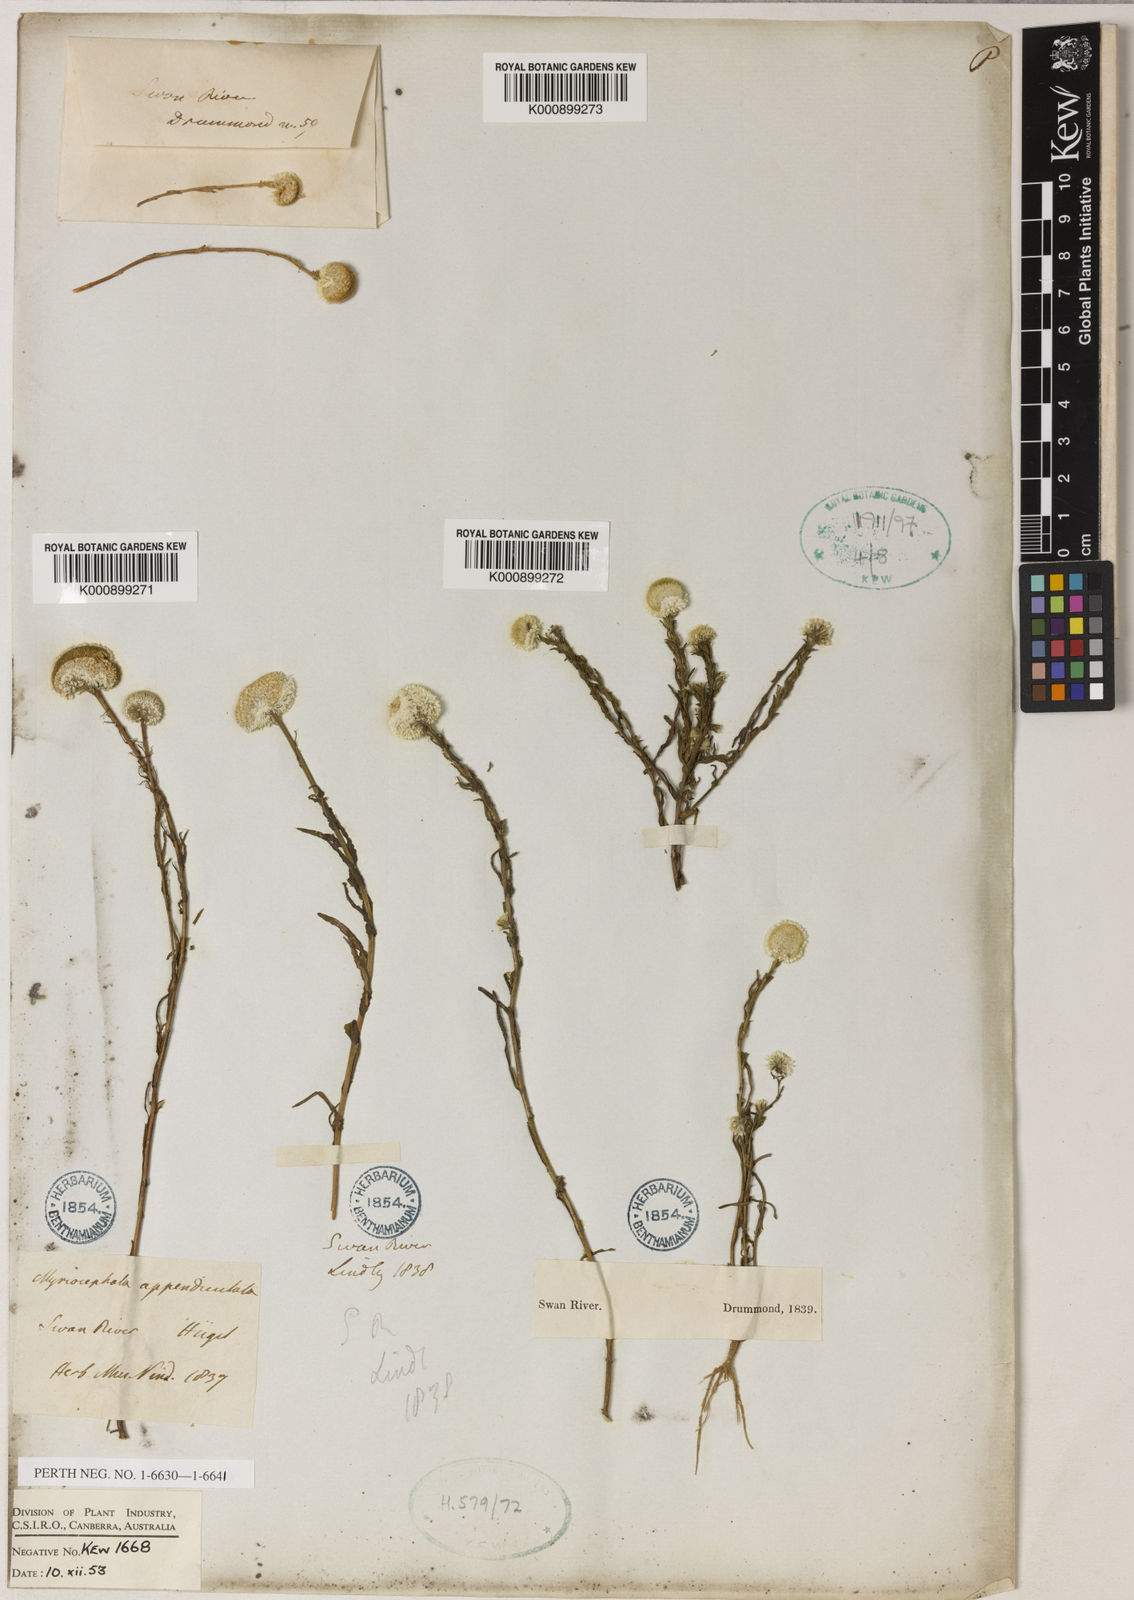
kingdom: Plantae
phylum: Tracheophyta
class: Magnoliopsida
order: Asterales
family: Asteraceae
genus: Myriocephalus
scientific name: Myriocephalus appendiculatus
